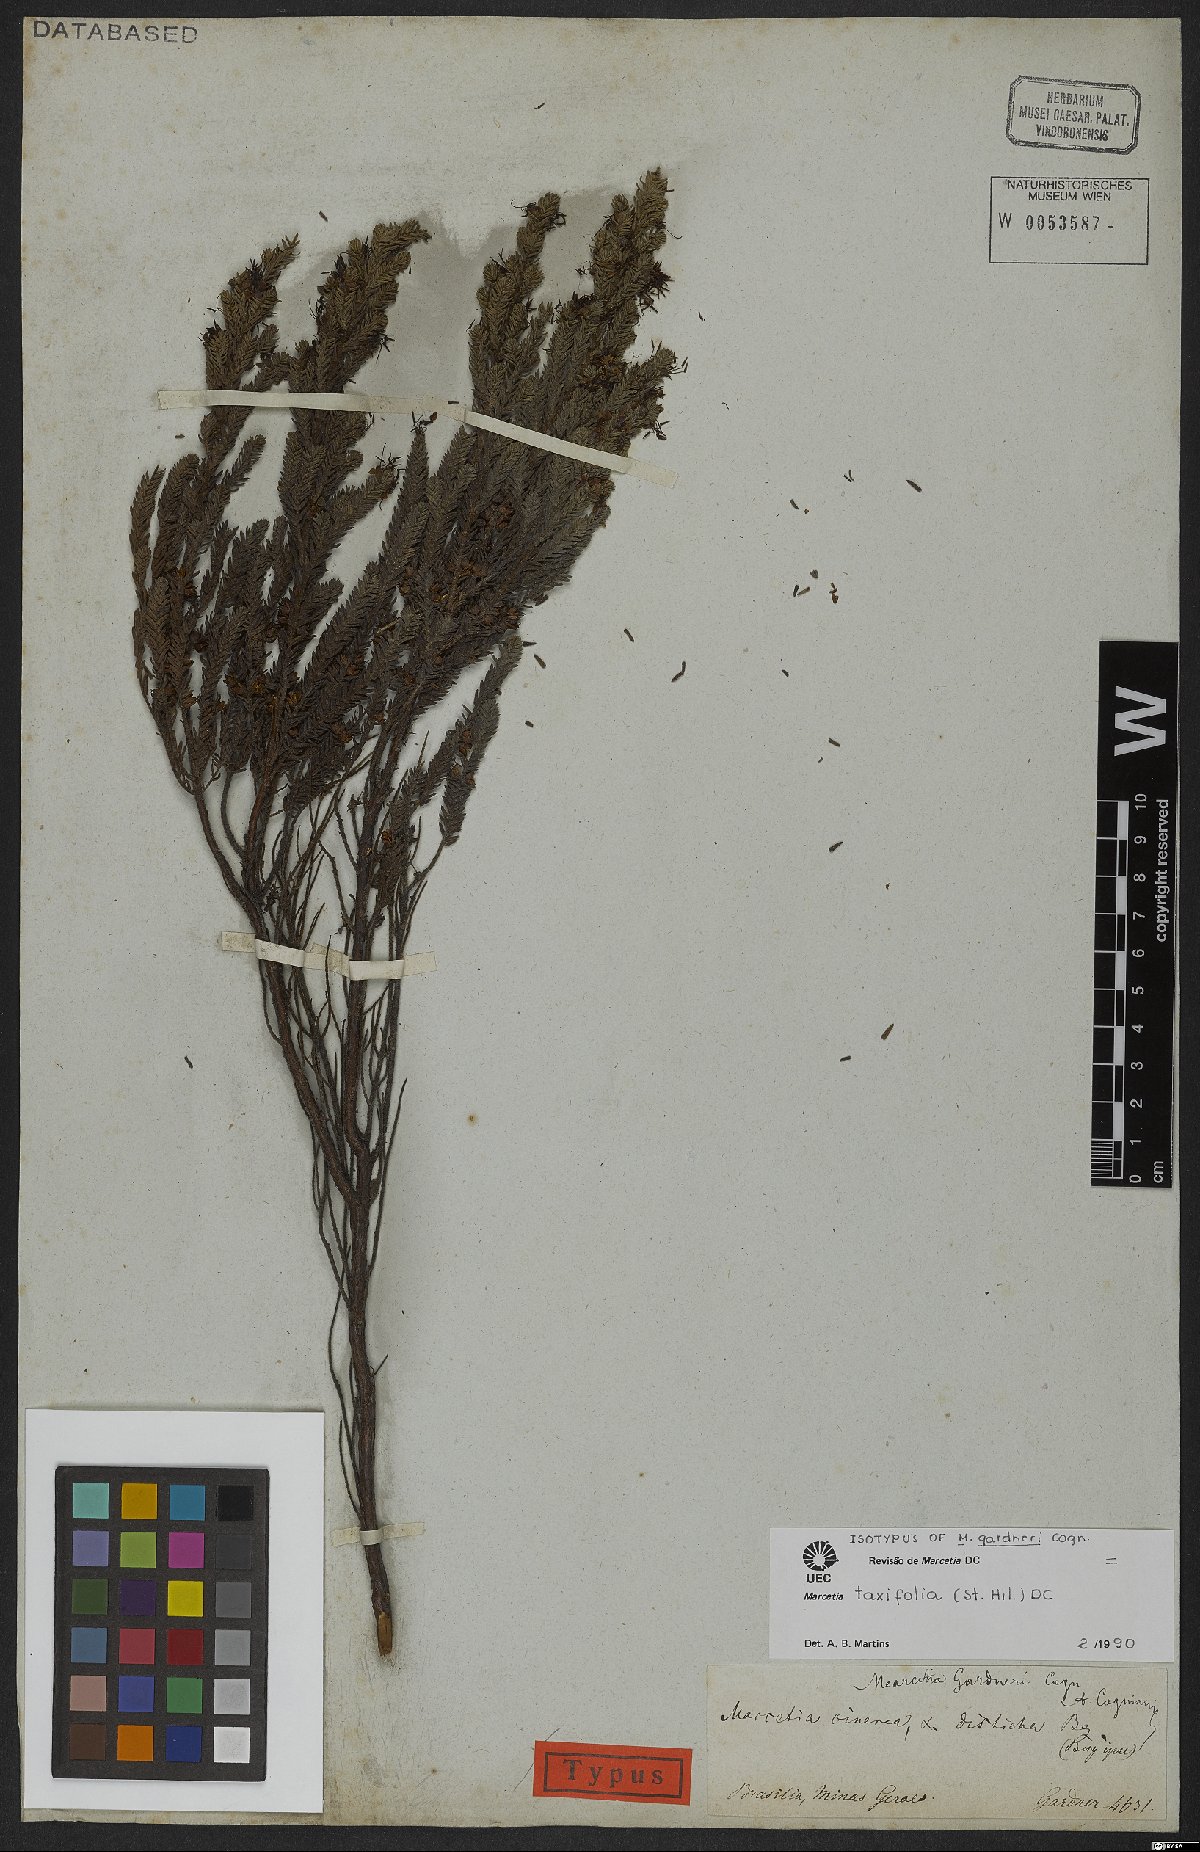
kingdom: Plantae
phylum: Tracheophyta
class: Magnoliopsida
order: Myrtales
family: Melastomataceae
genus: Marcetia
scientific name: Marcetia taxifolia
